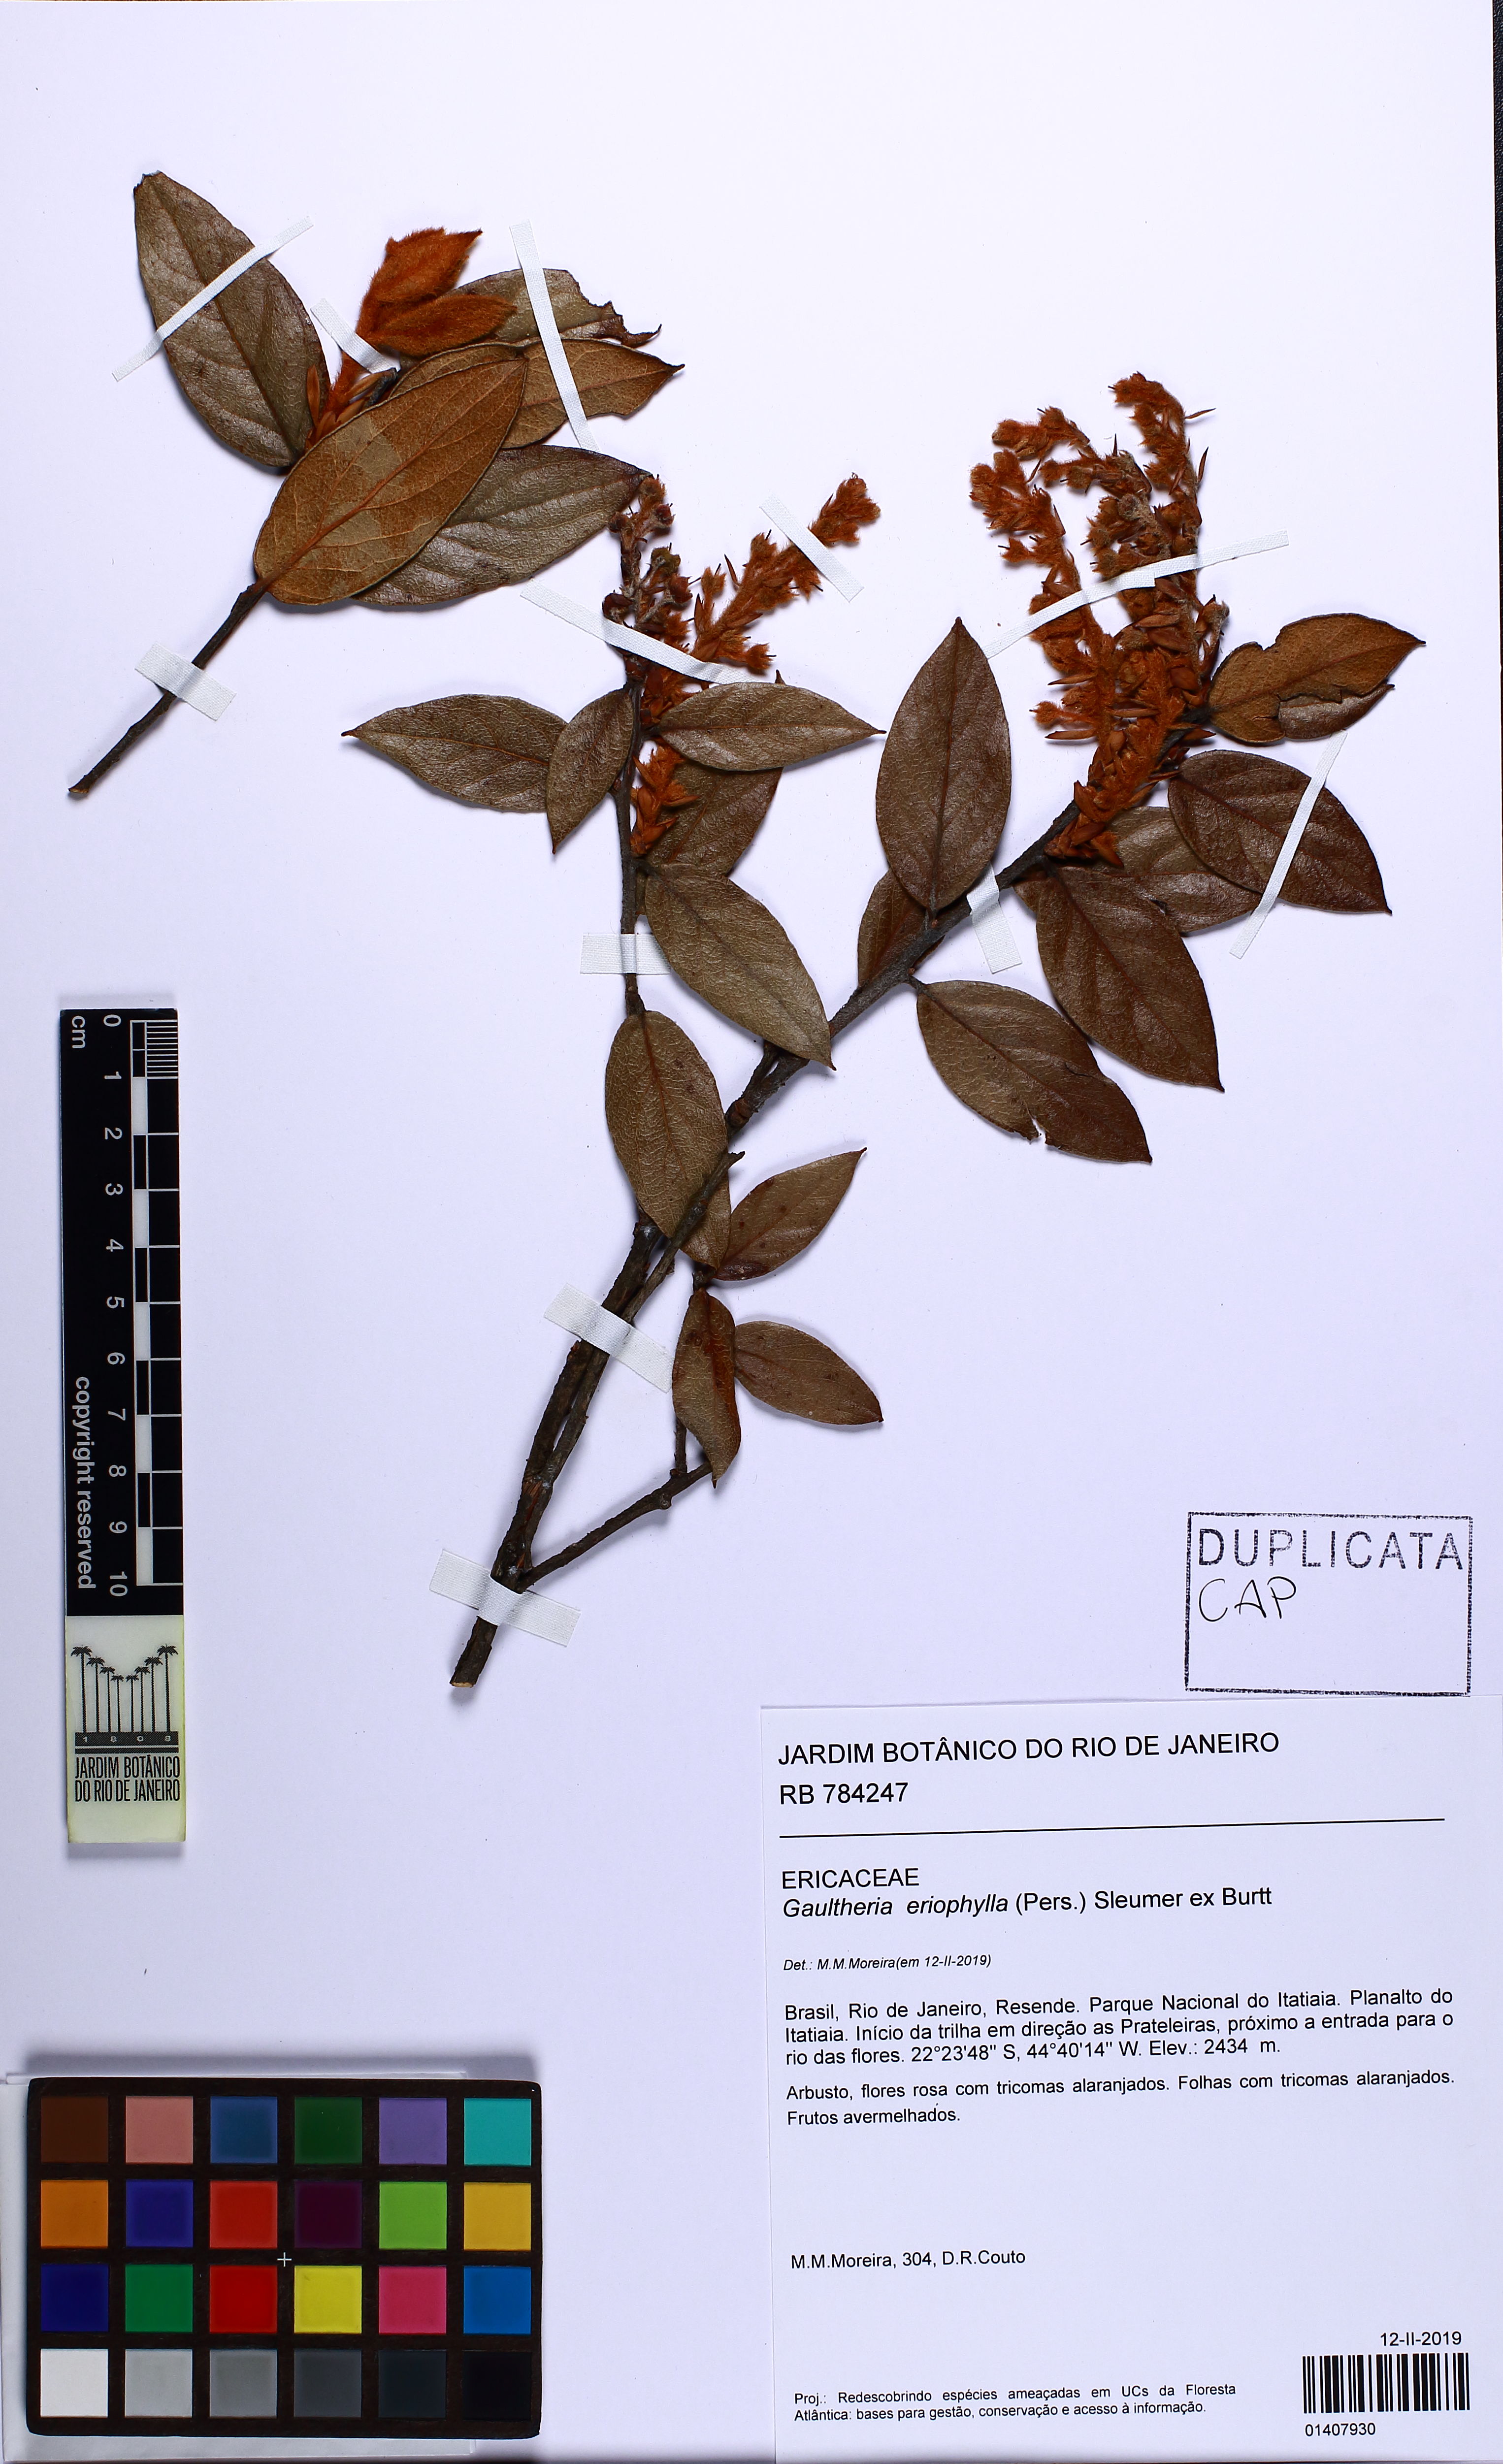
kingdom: Plantae
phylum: Tracheophyta
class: Magnoliopsida
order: Ericales
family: Ericaceae
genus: Gaultheria
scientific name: Gaultheria eriophylla
